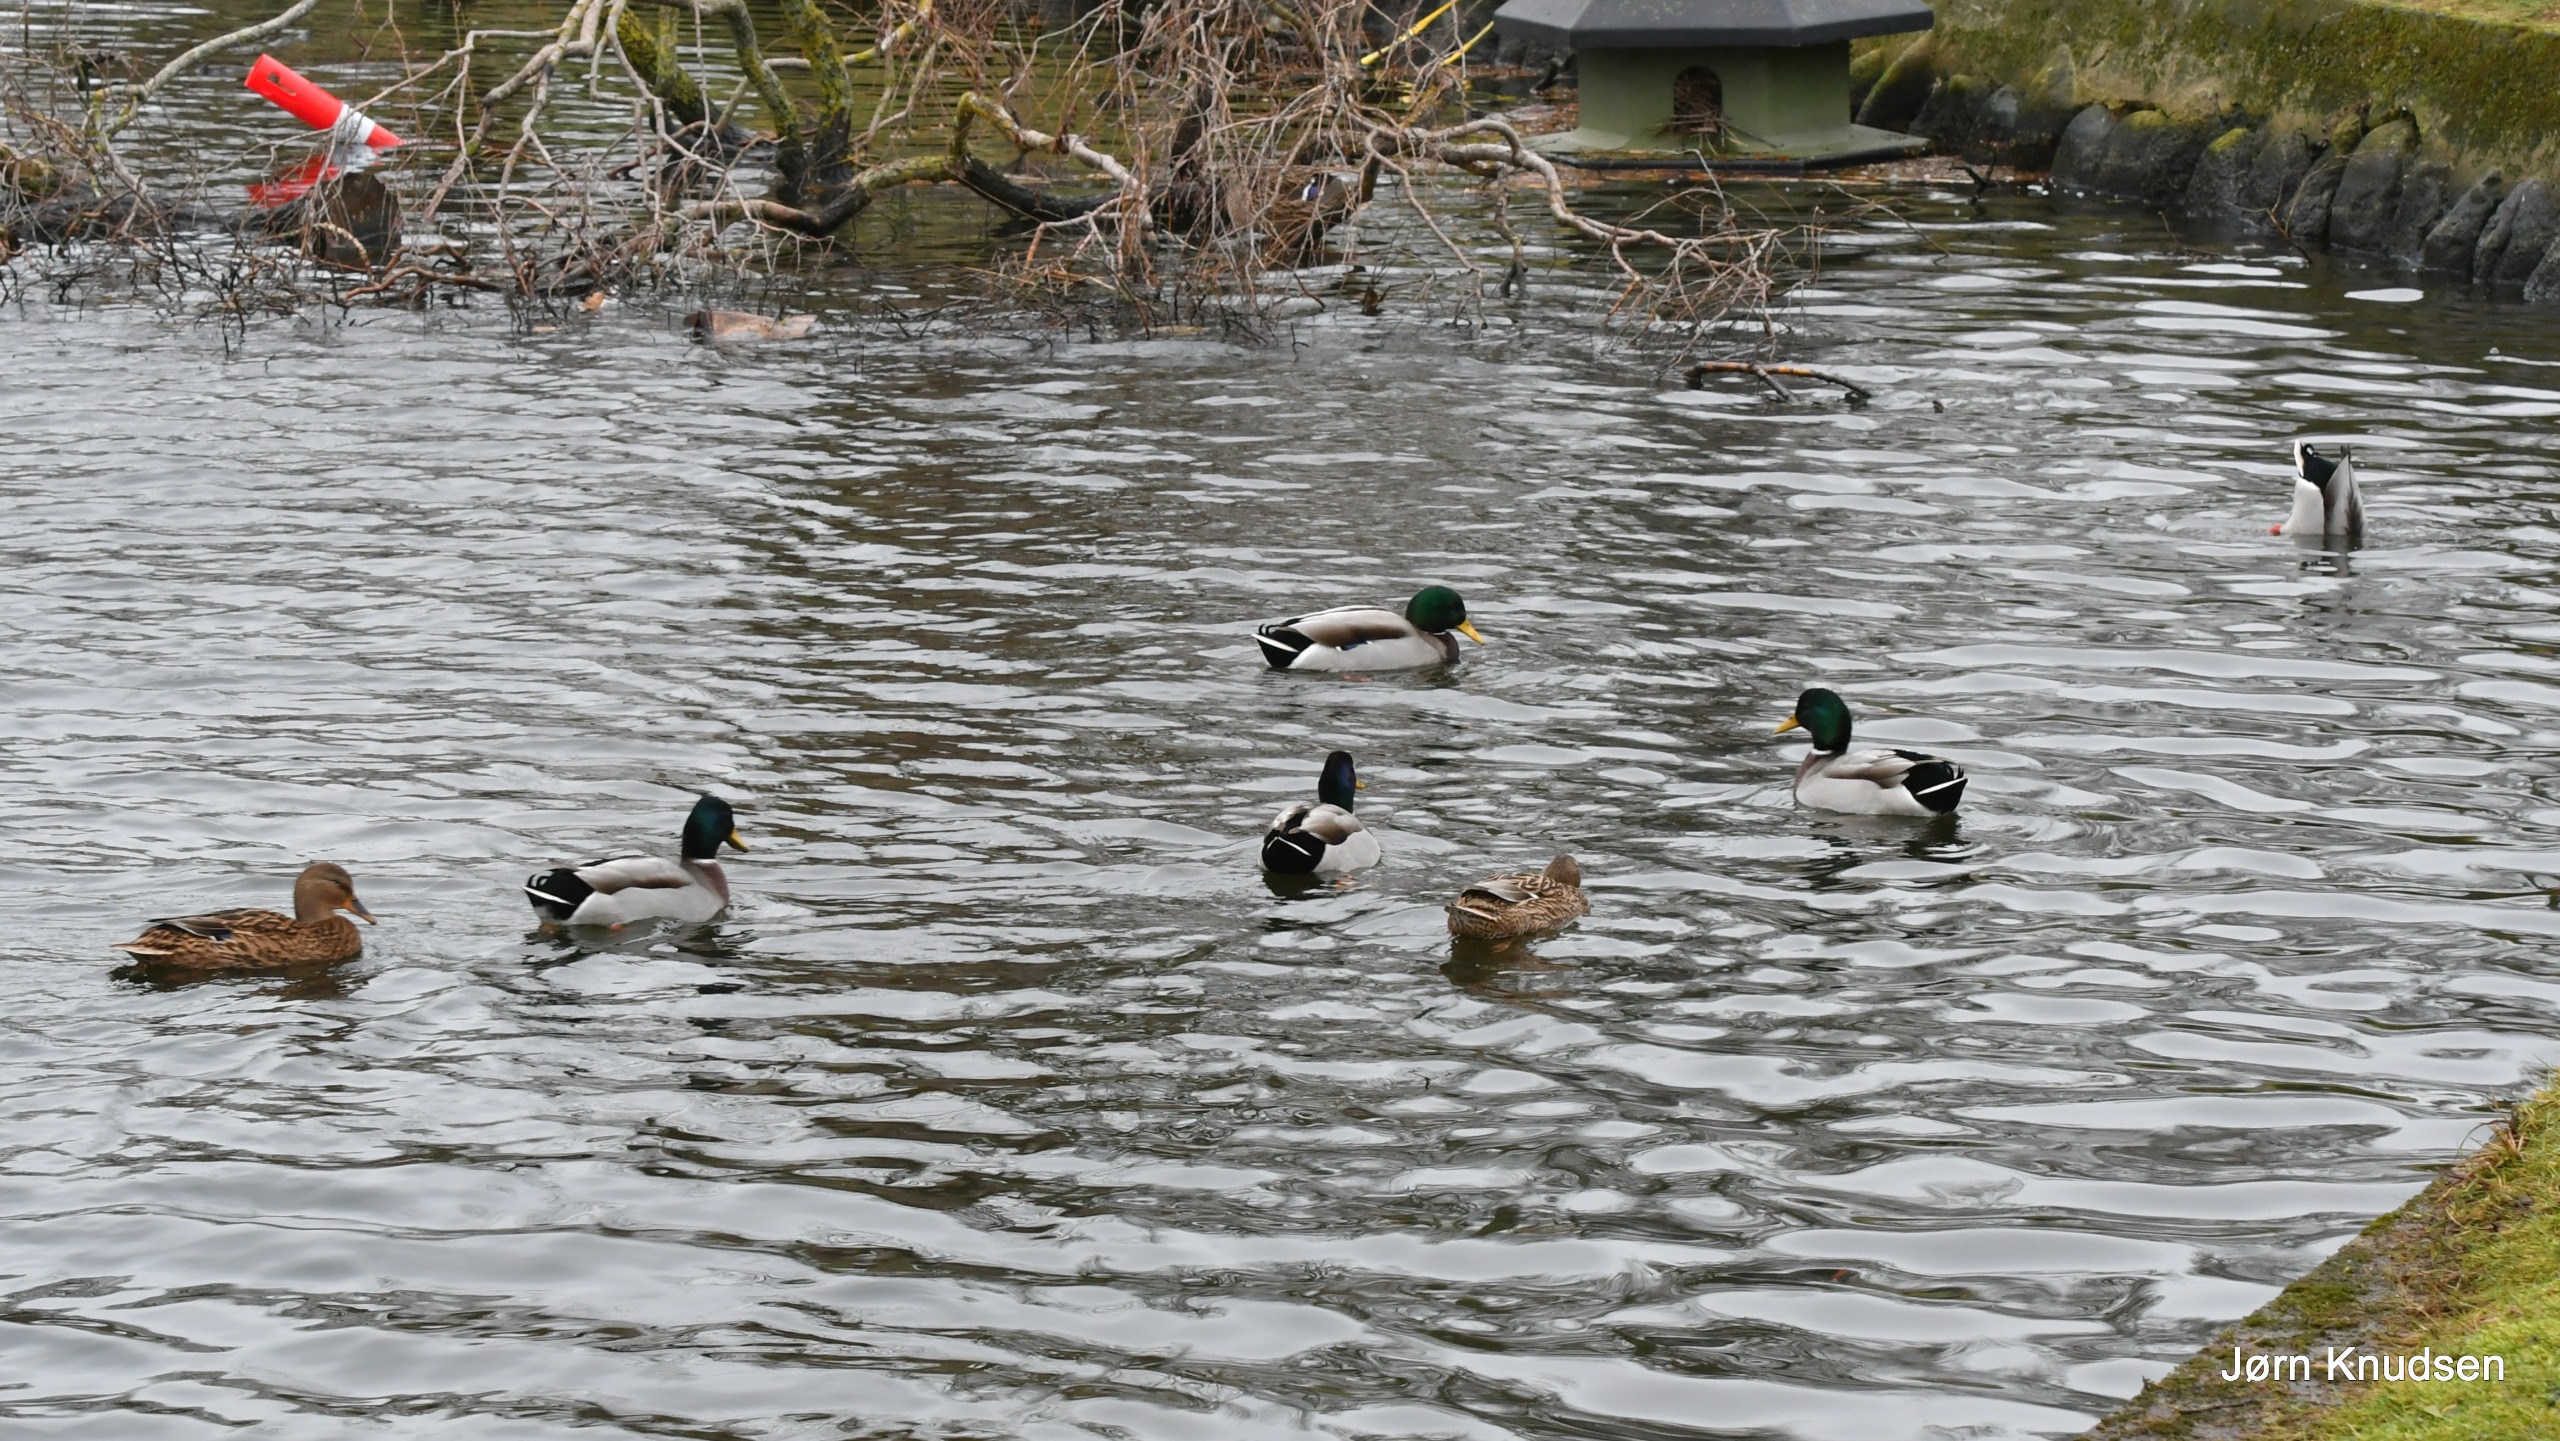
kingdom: Animalia
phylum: Chordata
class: Aves
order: Anseriformes
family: Anatidae
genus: Anas
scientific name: Anas platyrhynchos
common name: Gråand
